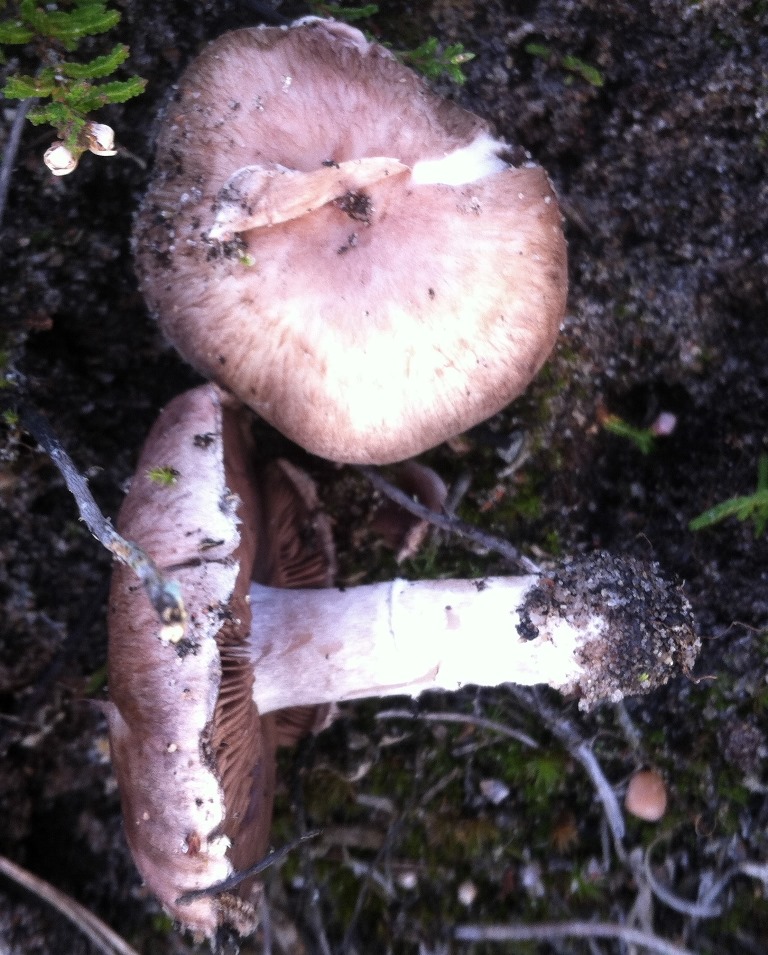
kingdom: Fungi
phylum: Basidiomycota
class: Agaricomycetes
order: Agaricales
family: Agaricaceae
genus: Agaricus
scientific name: Agaricus cupreobrunneus
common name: kobberbrun champignon
